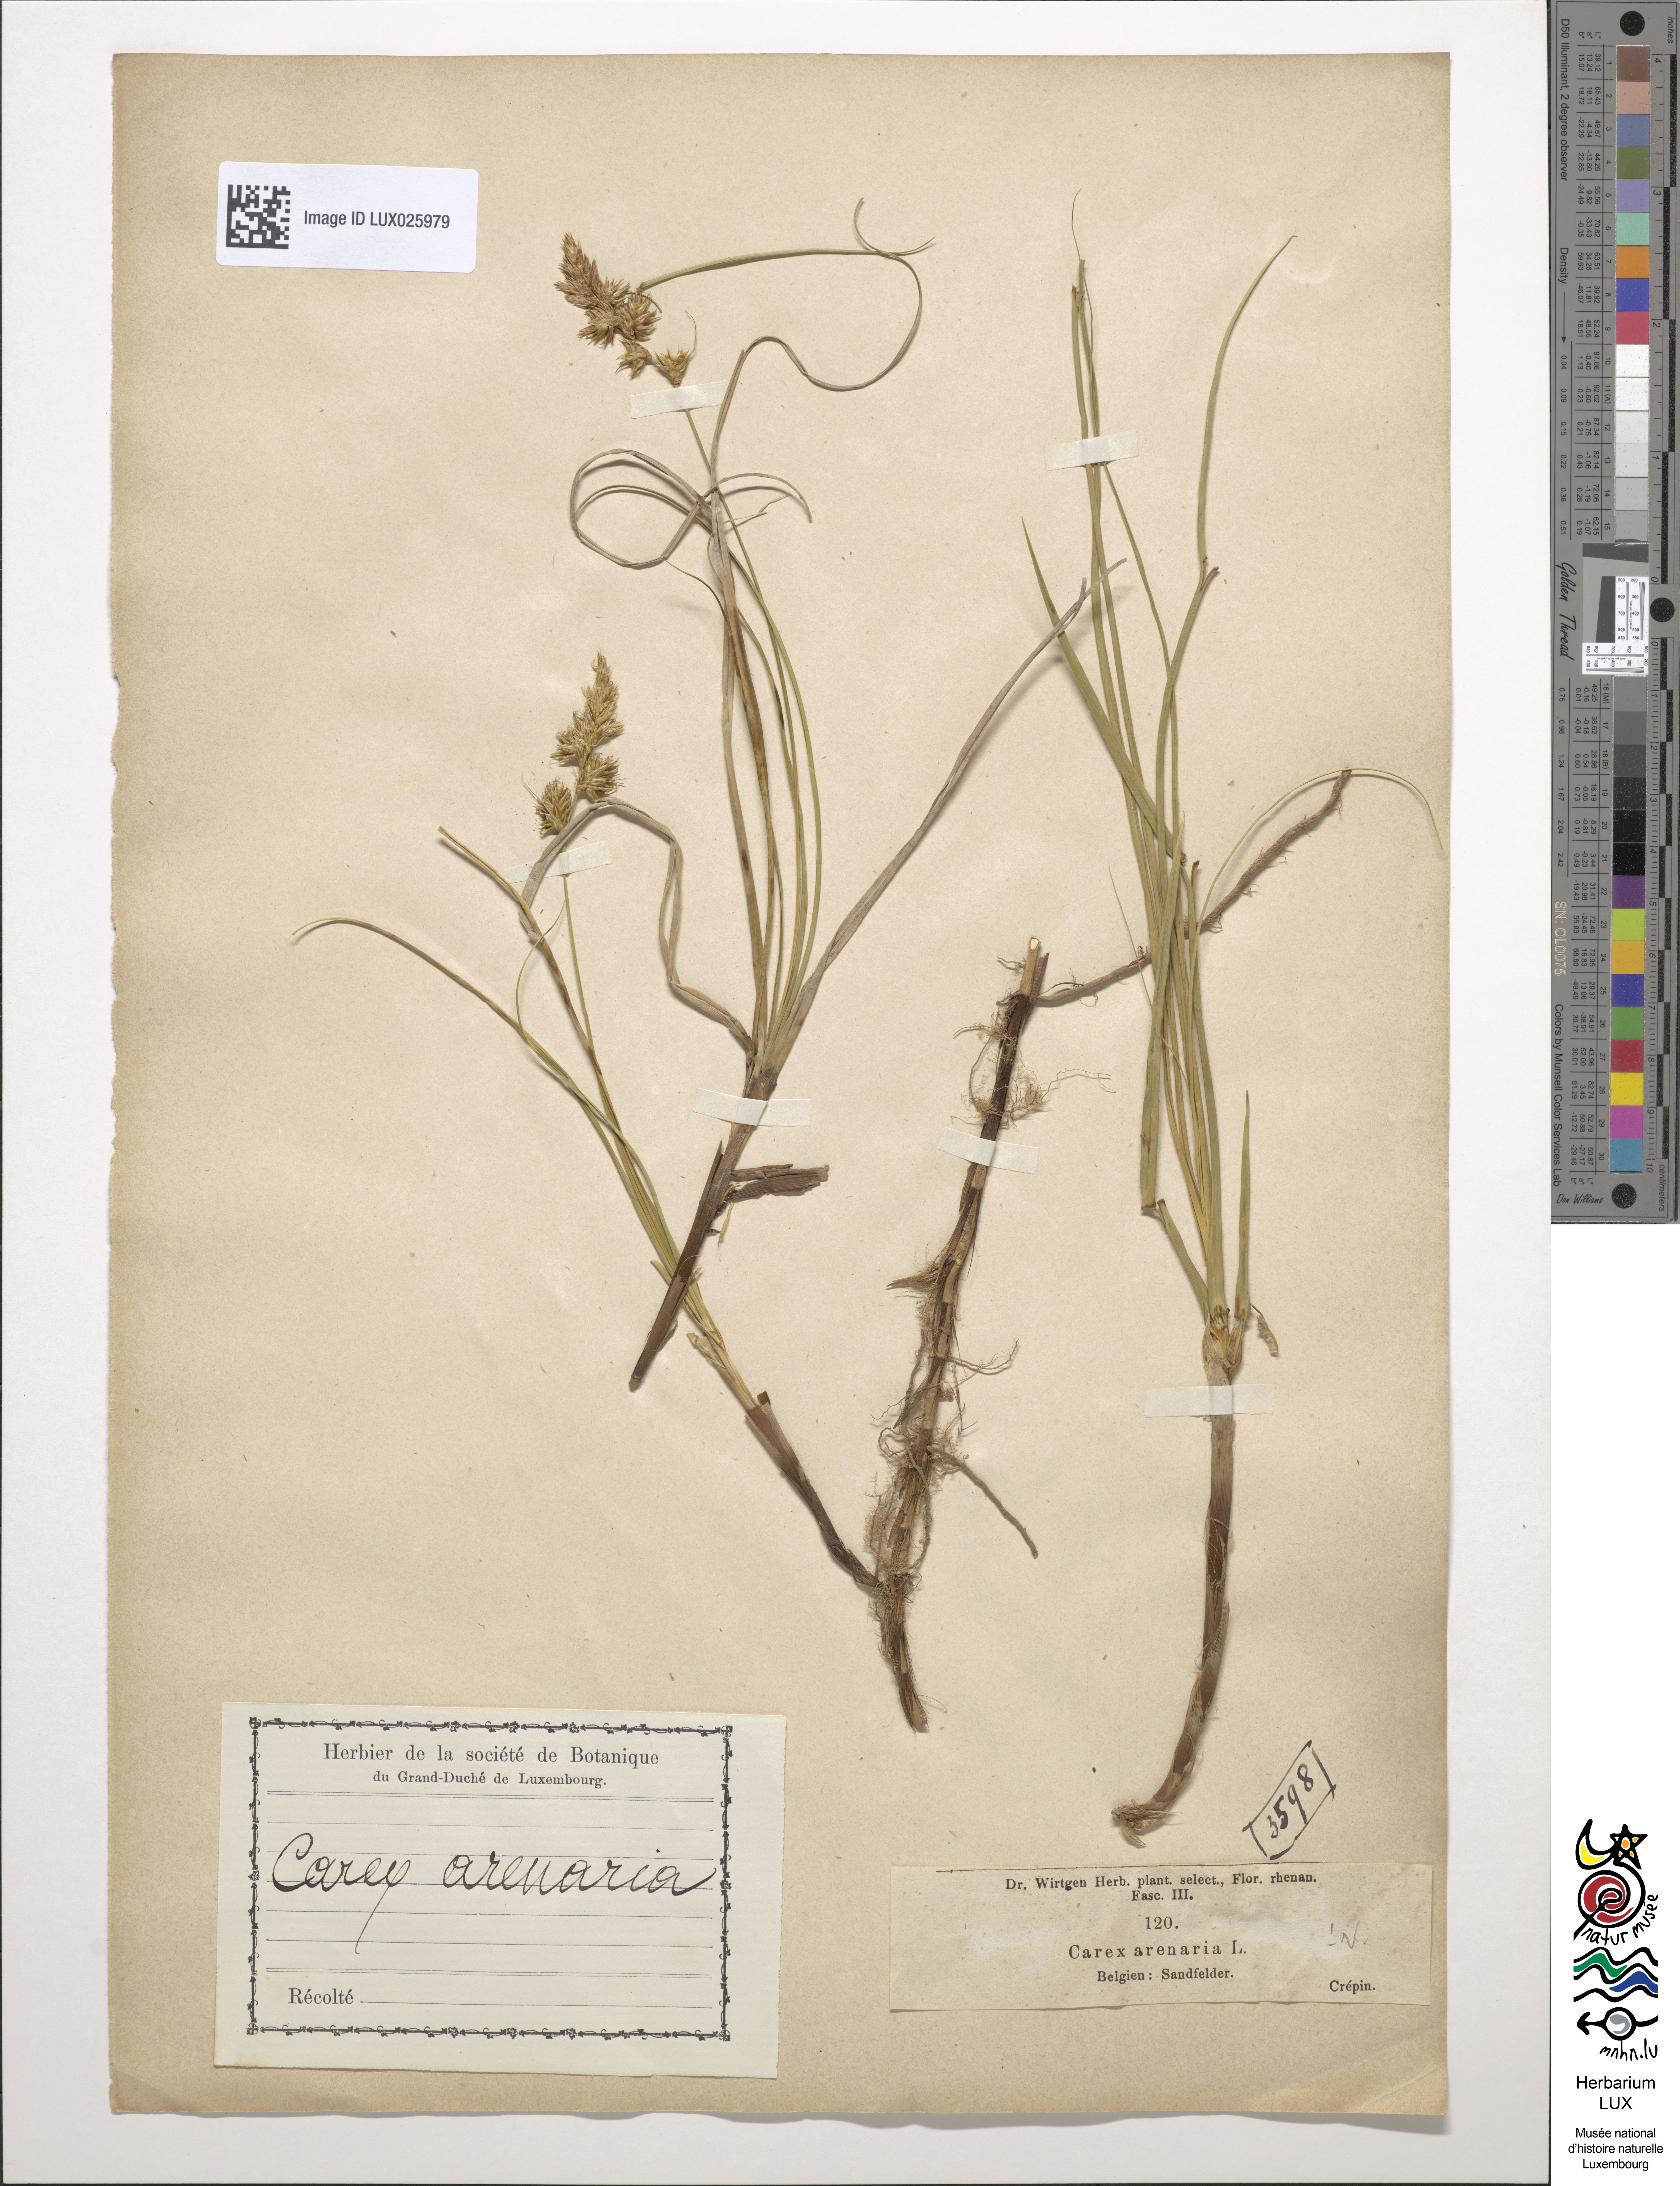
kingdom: Plantae
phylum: Tracheophyta
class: Liliopsida
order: Poales
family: Cyperaceae
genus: Carex
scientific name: Carex arenaria
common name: Sand sedge
